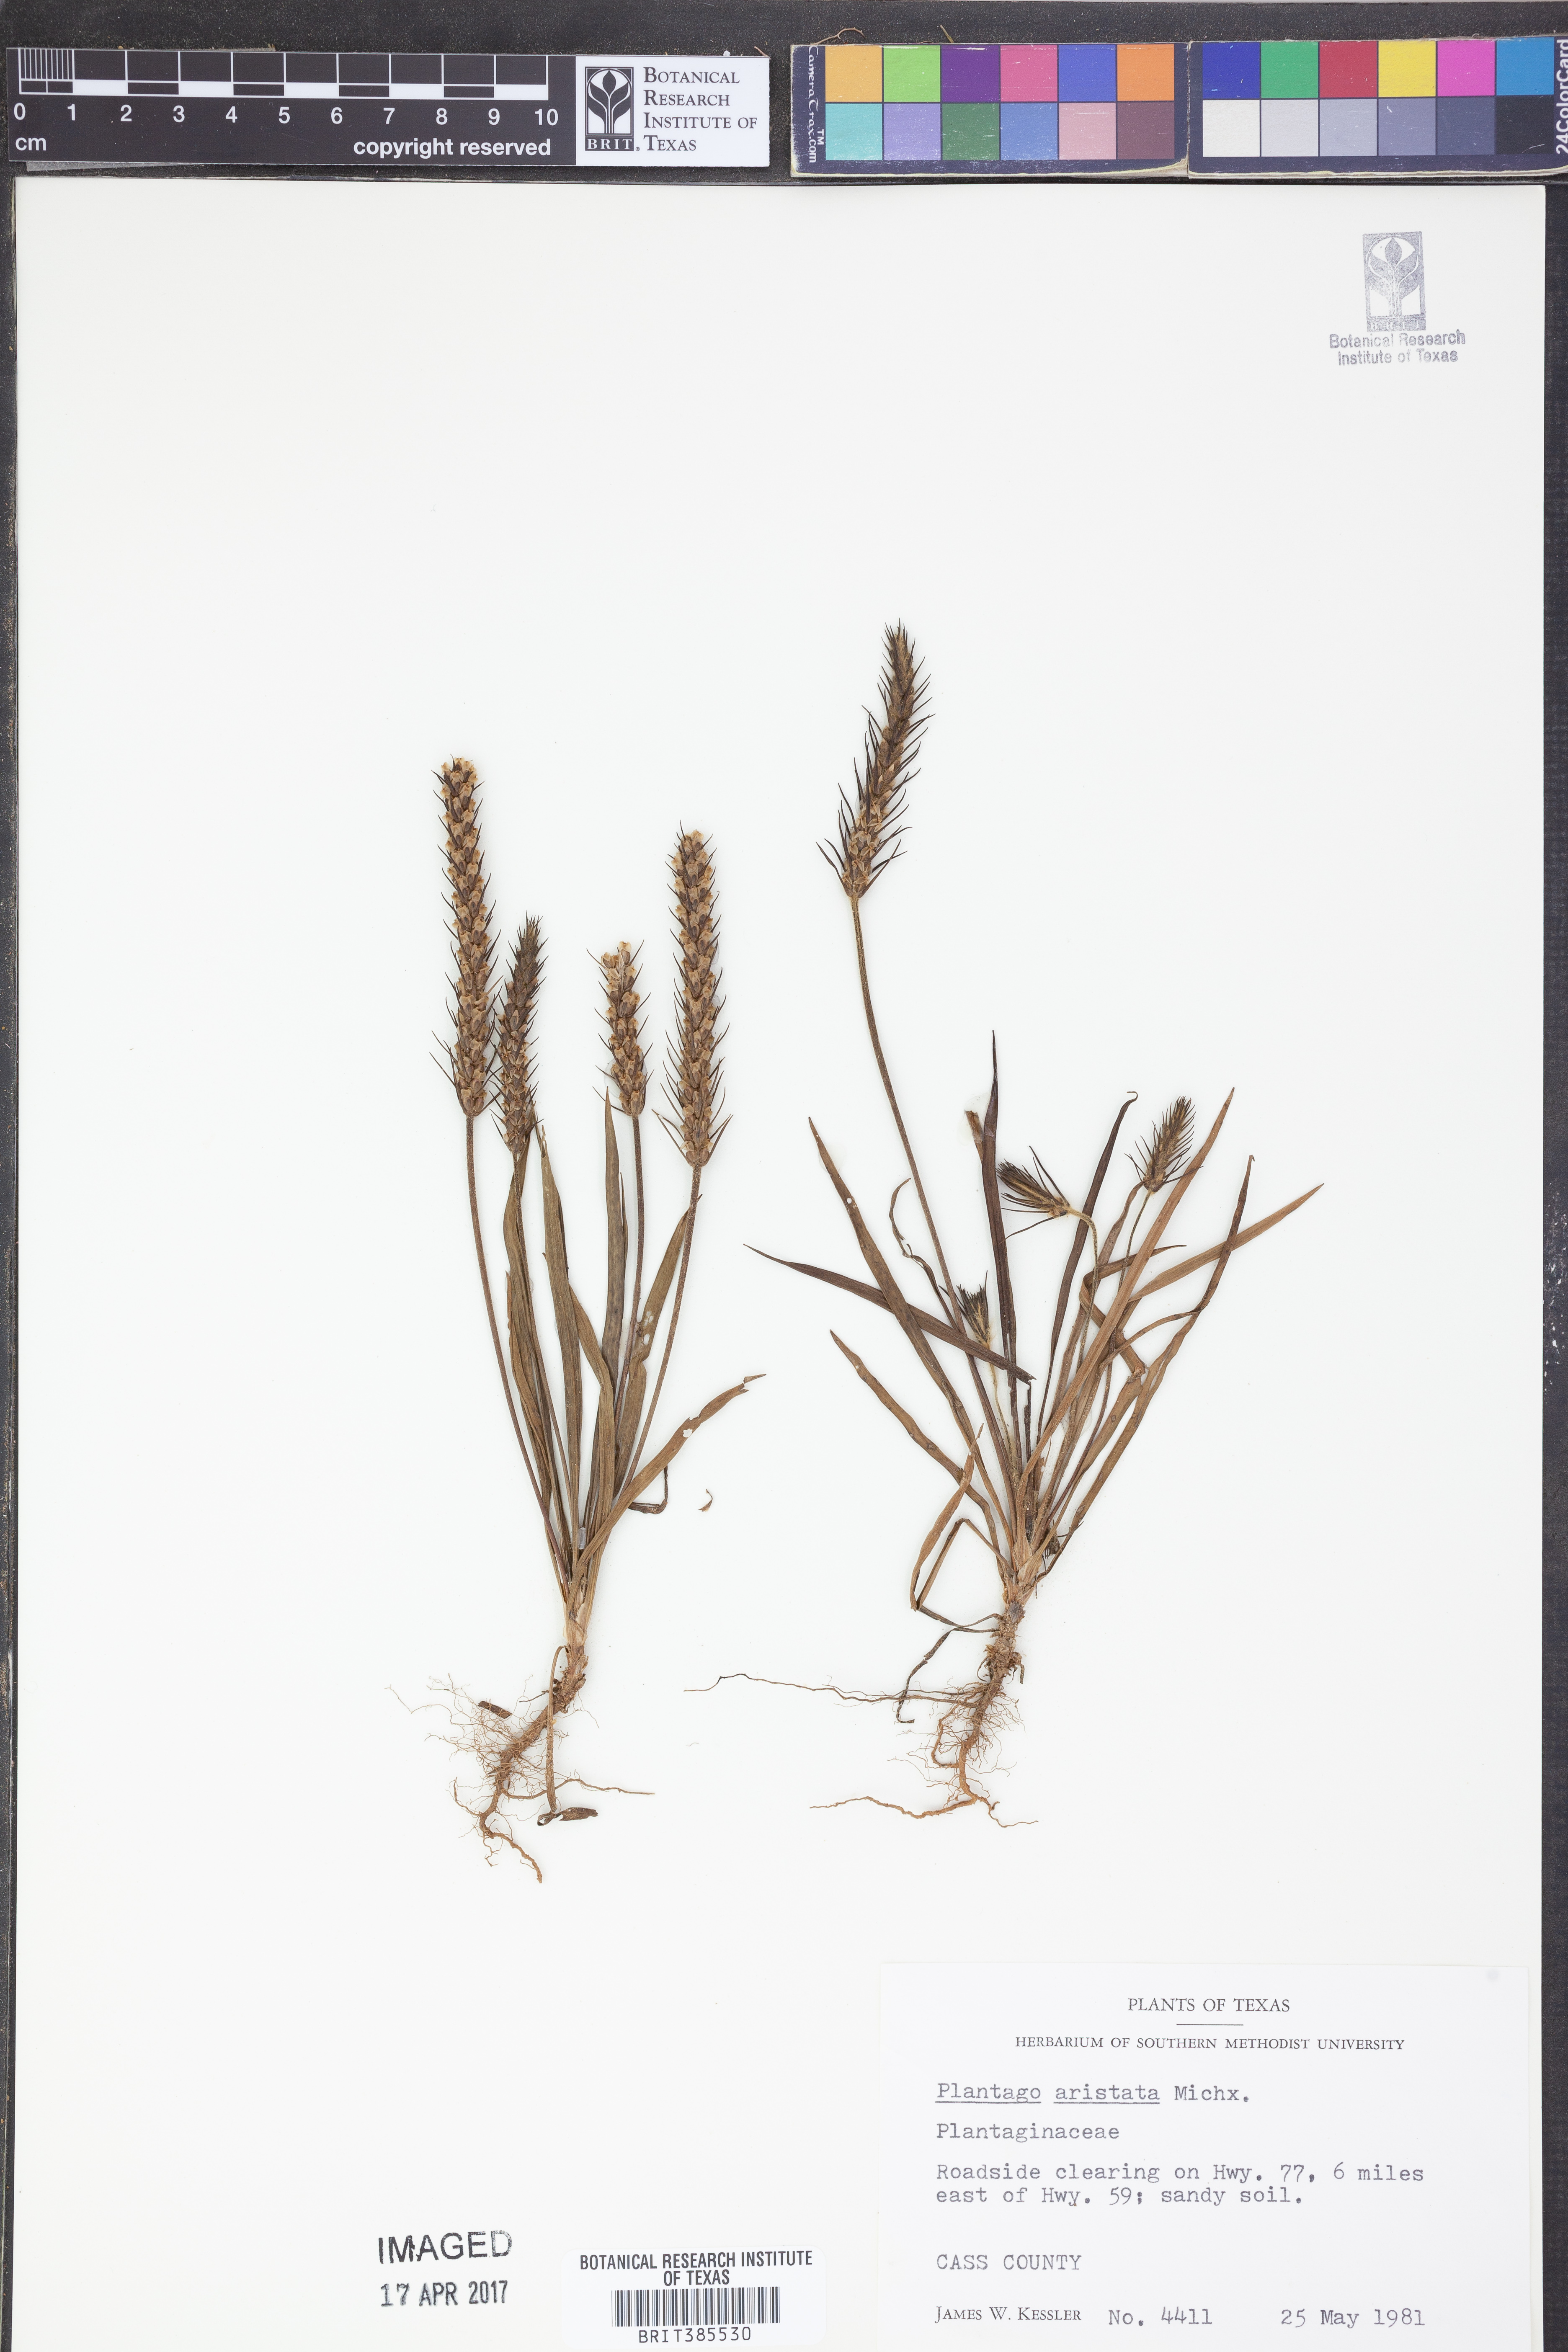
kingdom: Plantae
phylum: Tracheophyta
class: Magnoliopsida
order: Lamiales
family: Plantaginaceae
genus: Plantago
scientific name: Plantago aristata
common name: Bracted plantain
